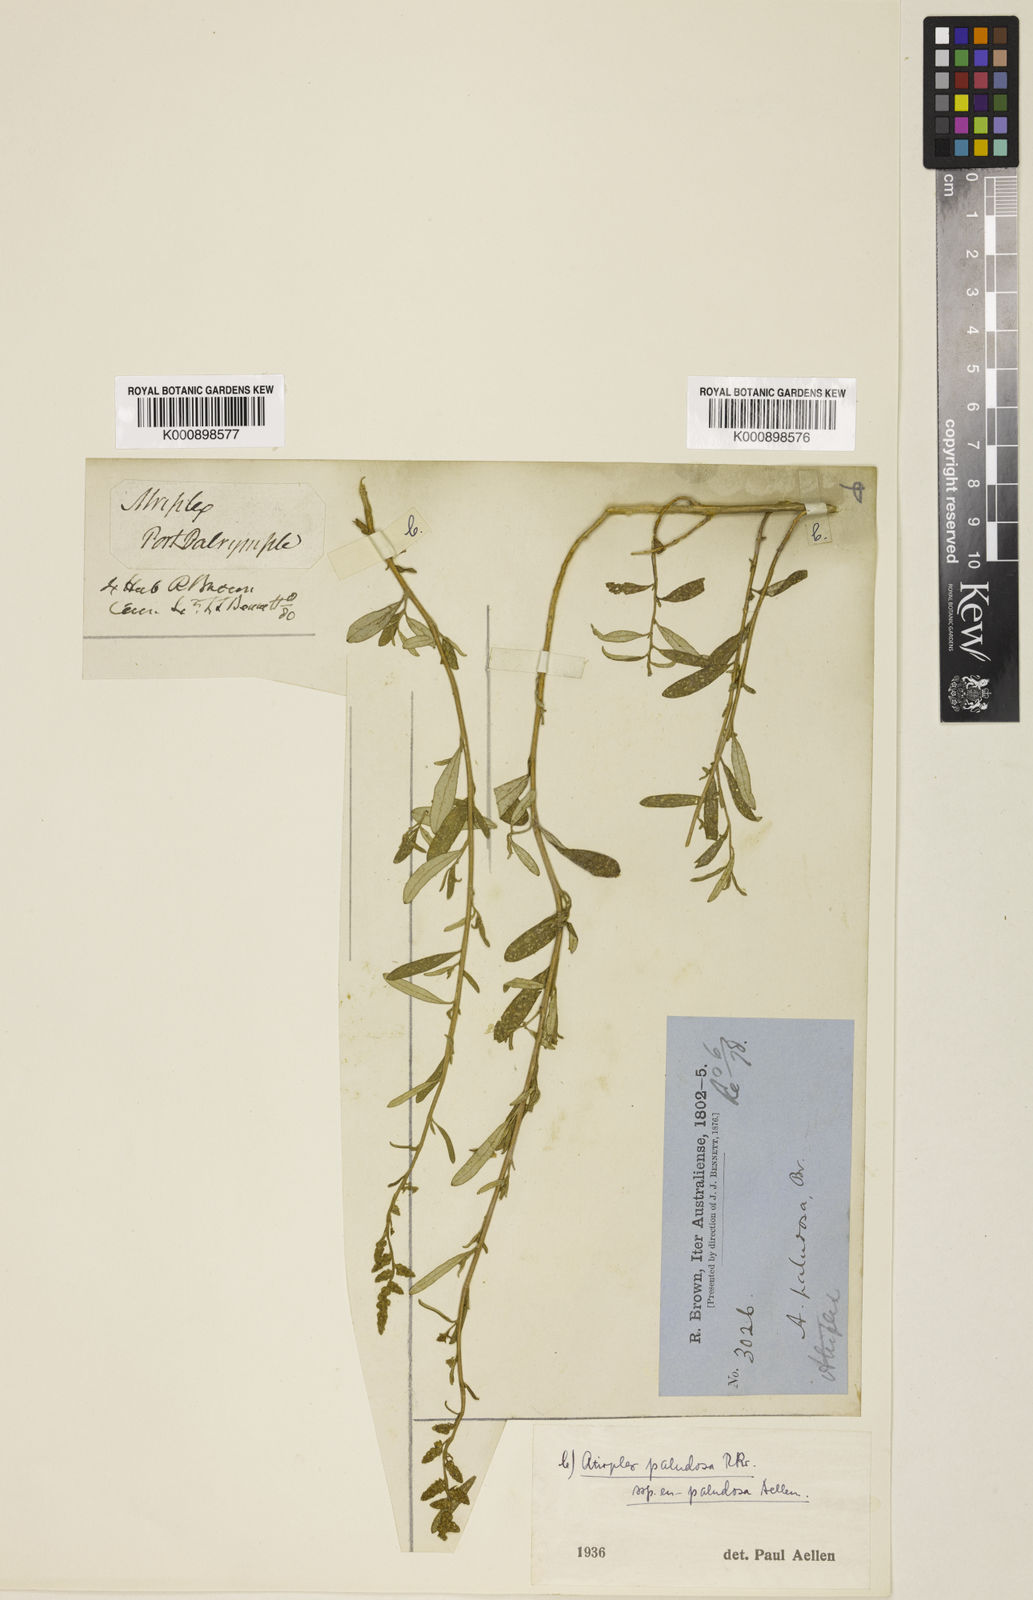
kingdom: Plantae
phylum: Tracheophyta
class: Magnoliopsida
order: Caryophyllales
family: Amaranthaceae
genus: Atriplex
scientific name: Atriplex paludosa
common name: Marsh saltbush
